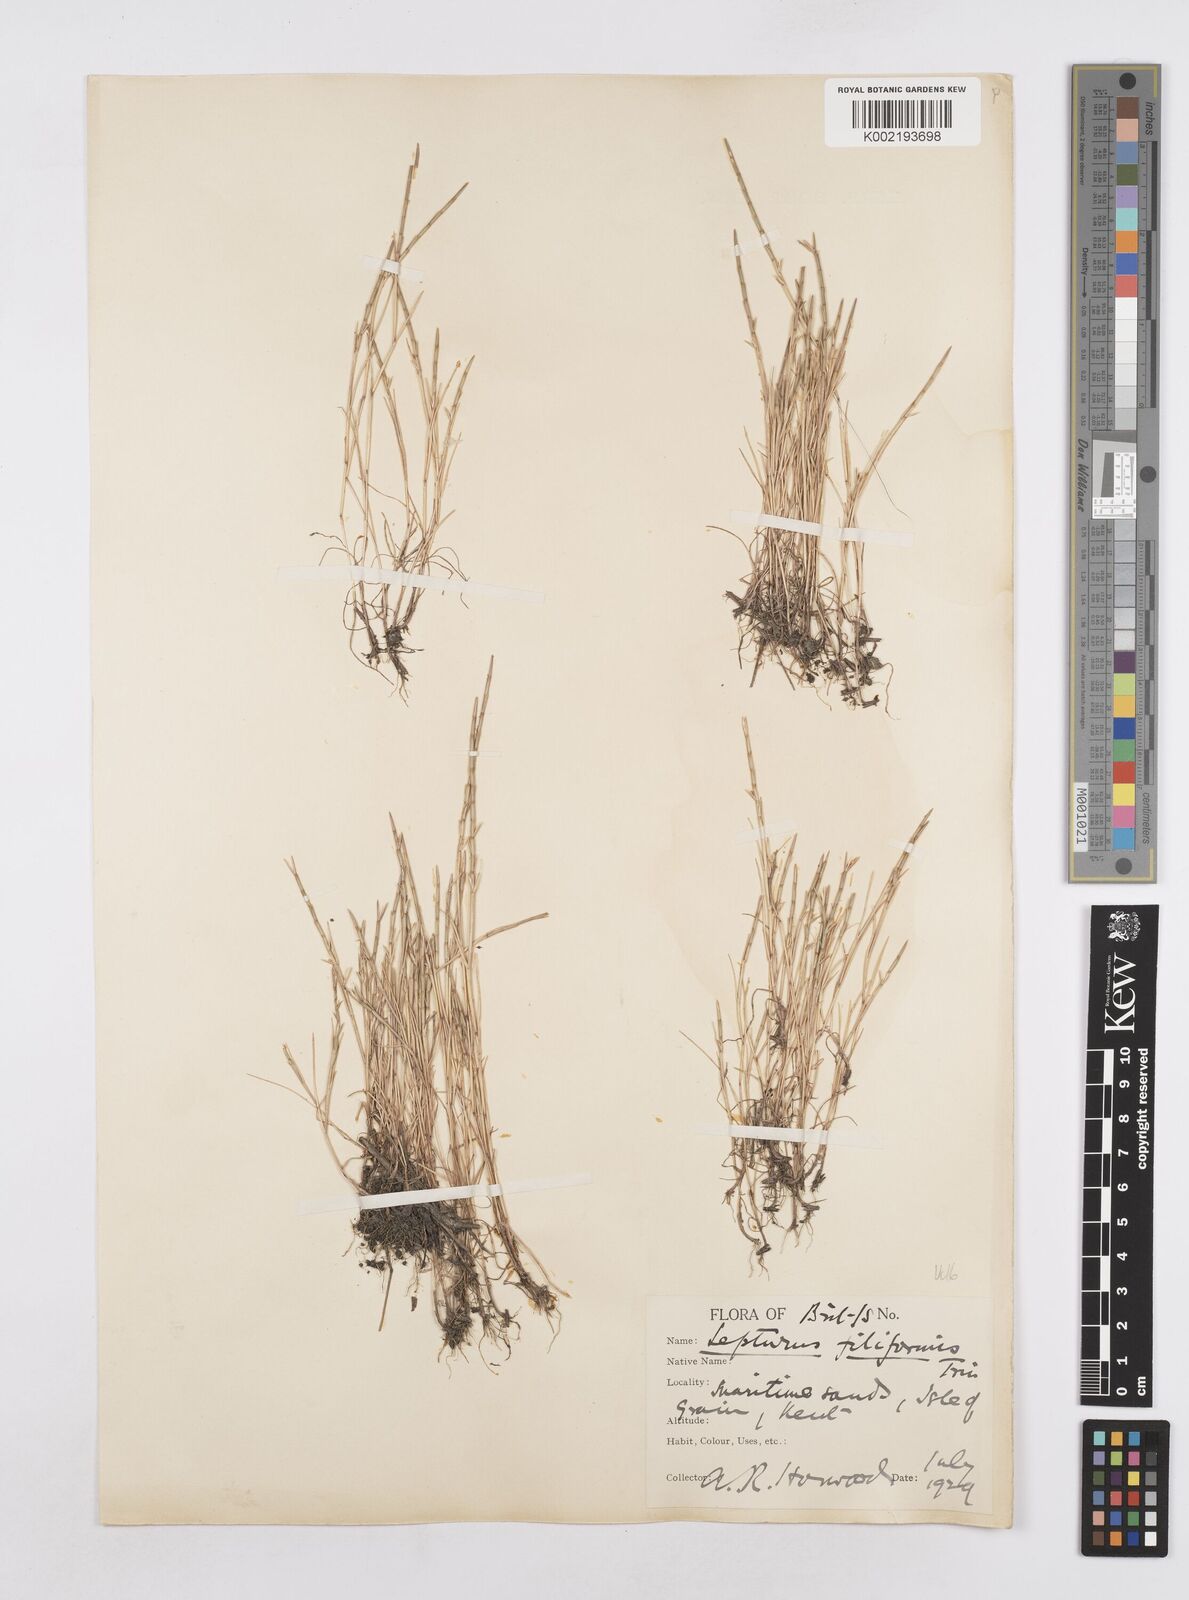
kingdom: Plantae
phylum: Tracheophyta
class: Liliopsida
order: Poales
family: Poaceae
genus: Parapholis
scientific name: Parapholis strigosa
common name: Hard-grass
